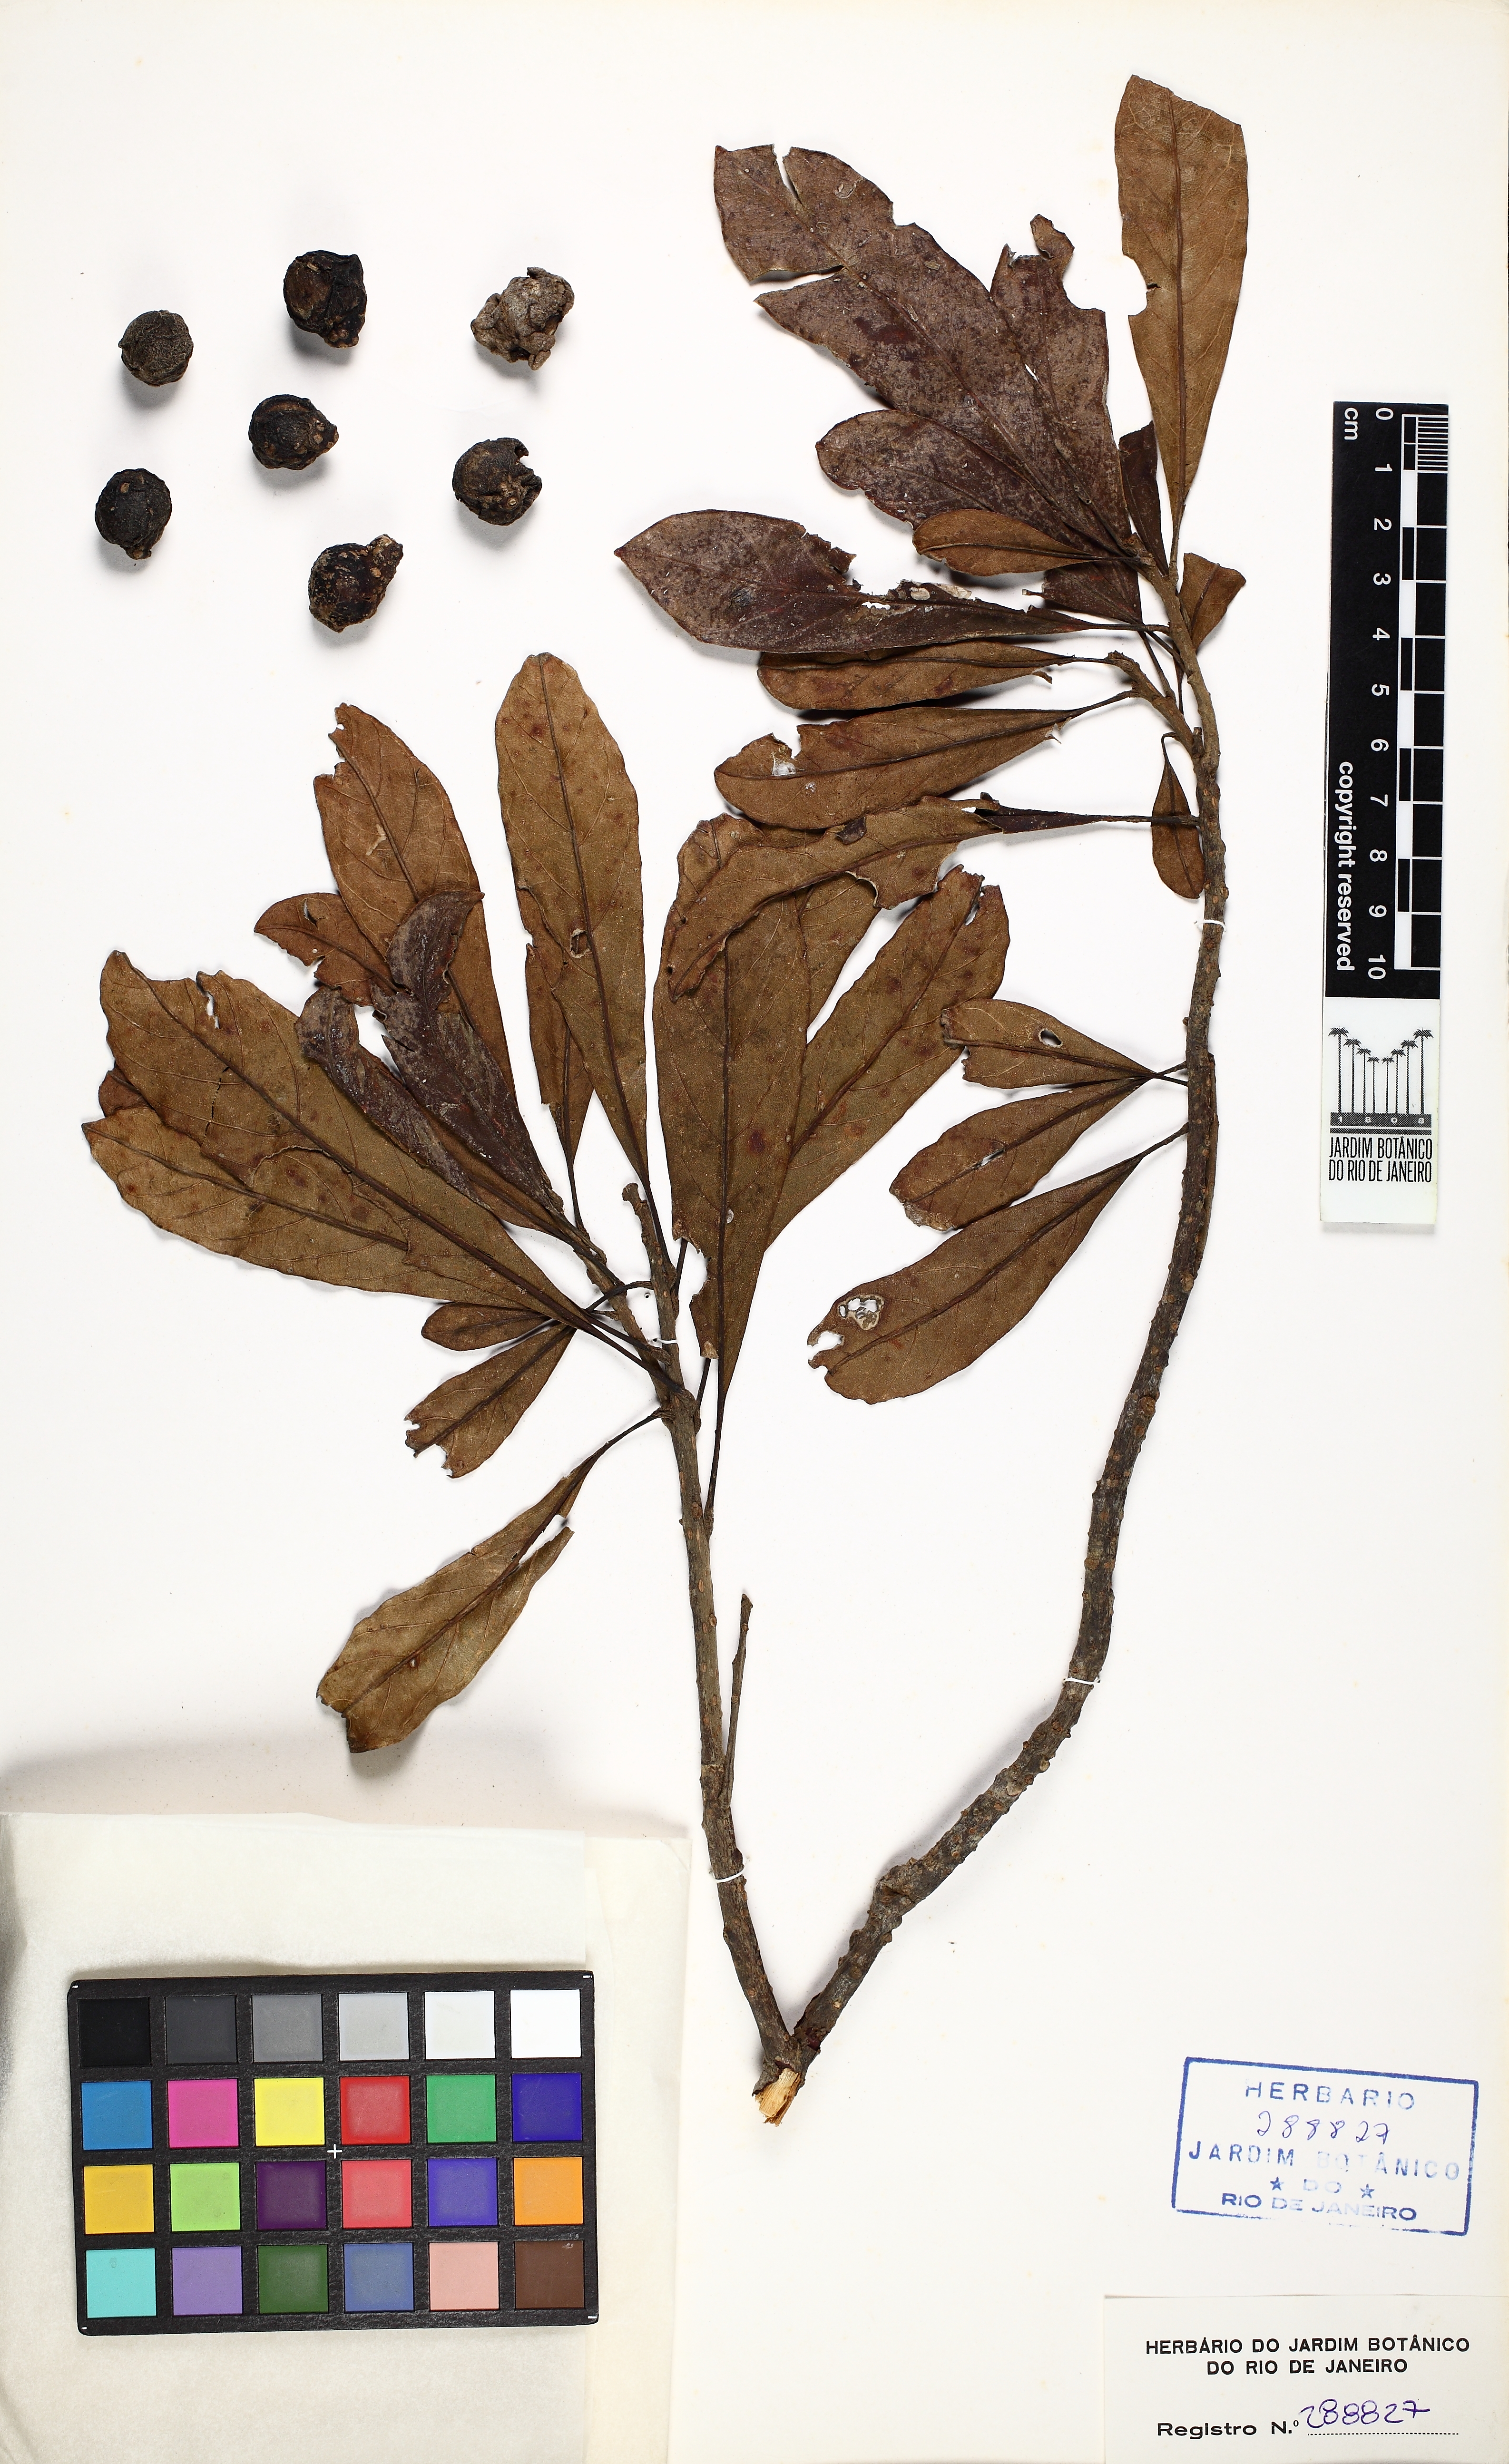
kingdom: Plantae
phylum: Tracheophyta
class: Magnoliopsida
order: Proteales
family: Sabiaceae
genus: Meliosma
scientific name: Meliosma sellowii
